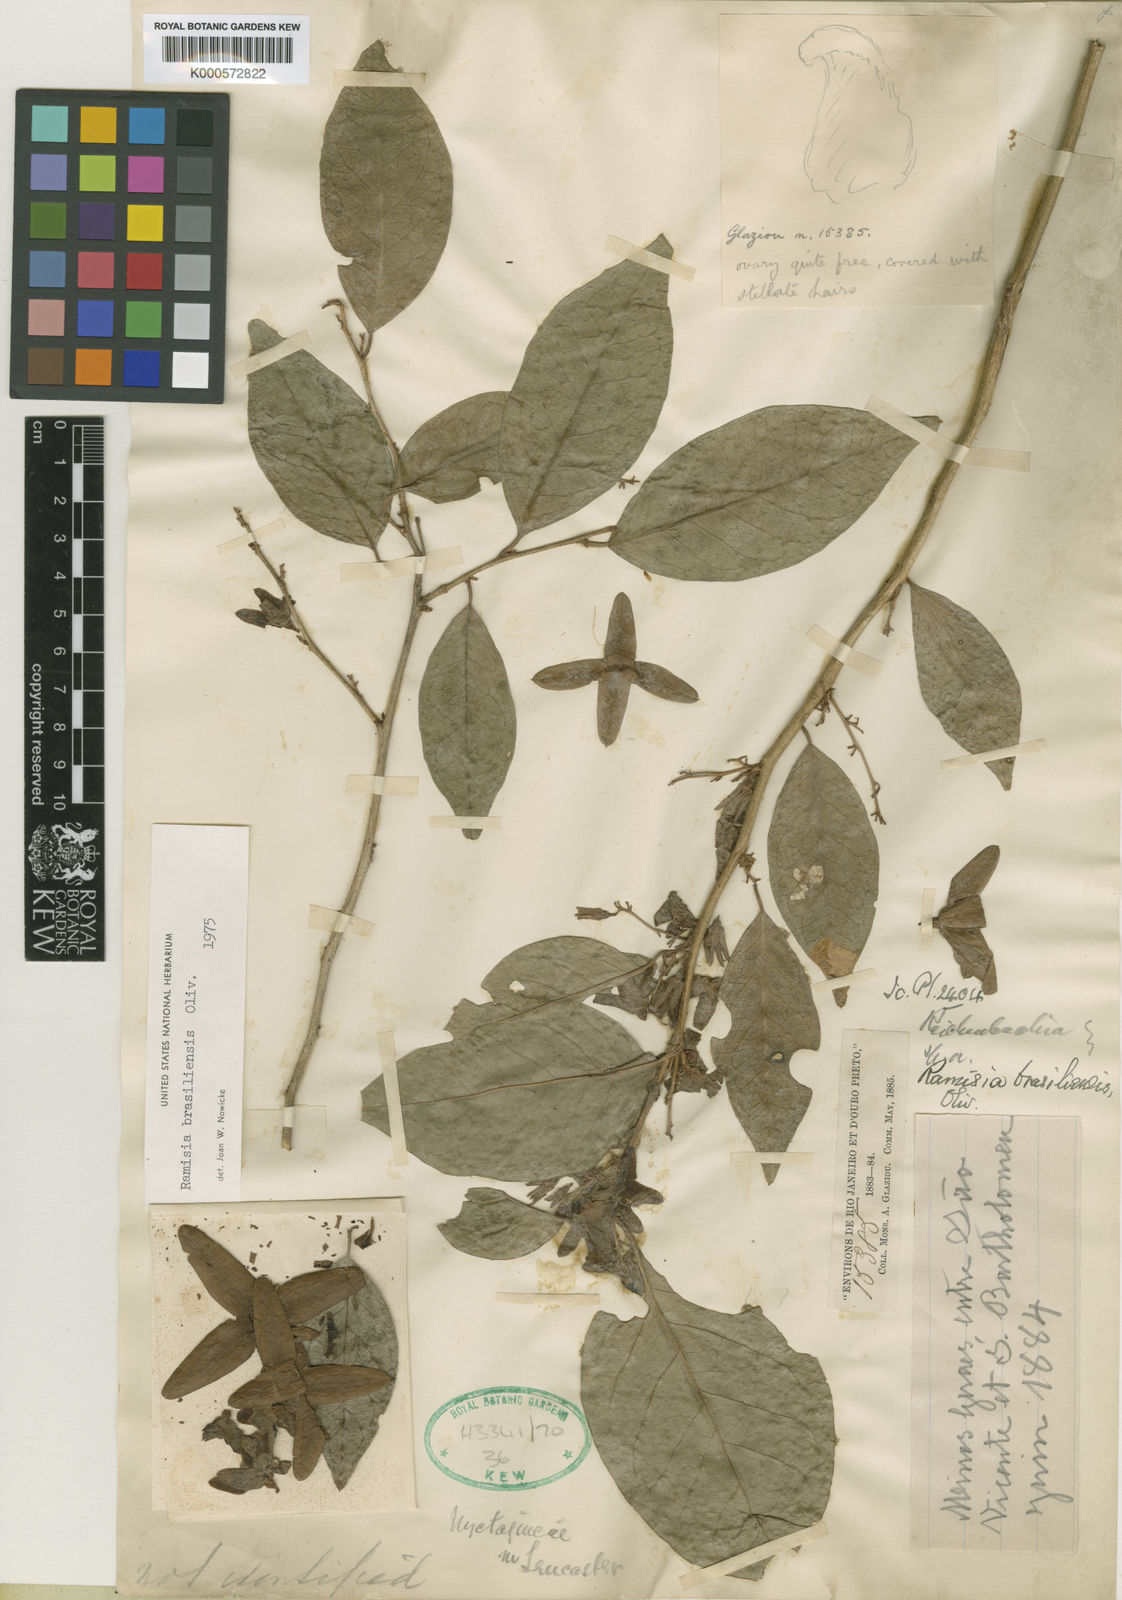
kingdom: Plantae
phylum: Tracheophyta
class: Magnoliopsida
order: Caryophyllales
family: Nyctaginaceae
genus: Ramisia
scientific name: Ramisia brasiliensis
